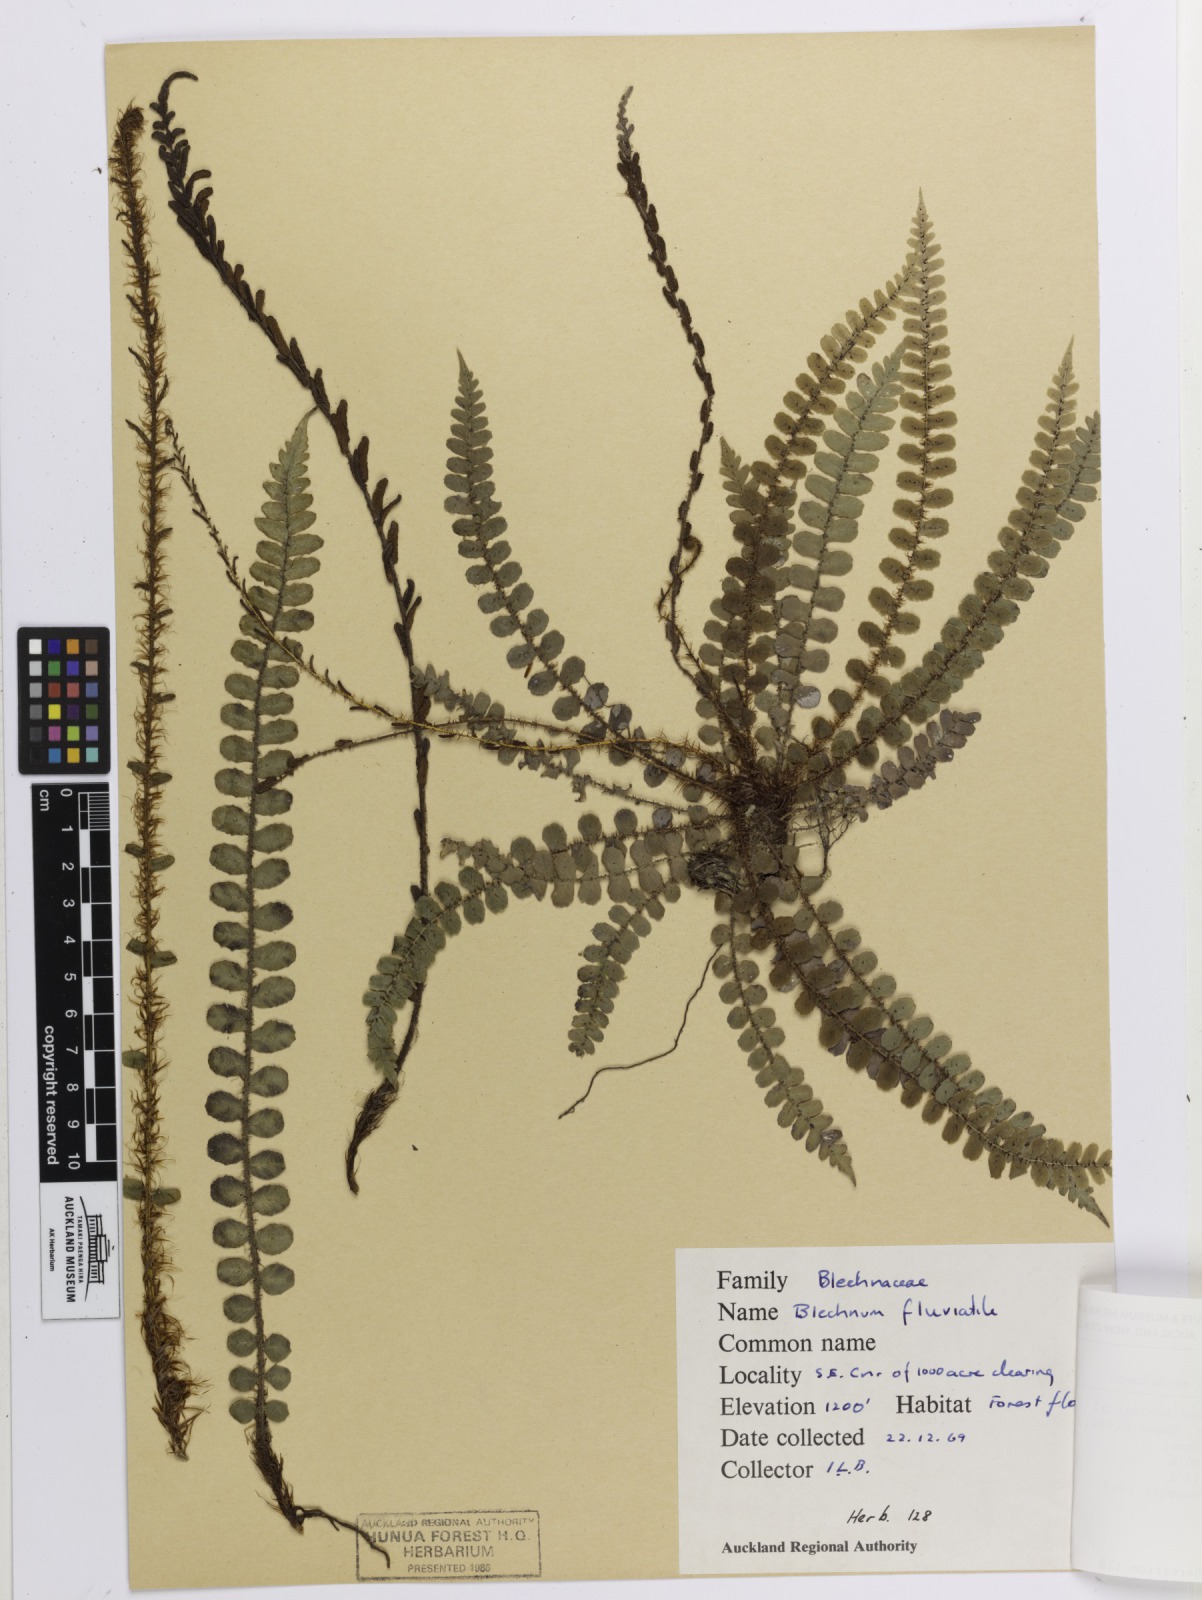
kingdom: Plantae
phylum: Tracheophyta
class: Polypodiopsida
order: Polypodiales
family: Blechnaceae
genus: Cranfillia
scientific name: Cranfillia fluviatilis
